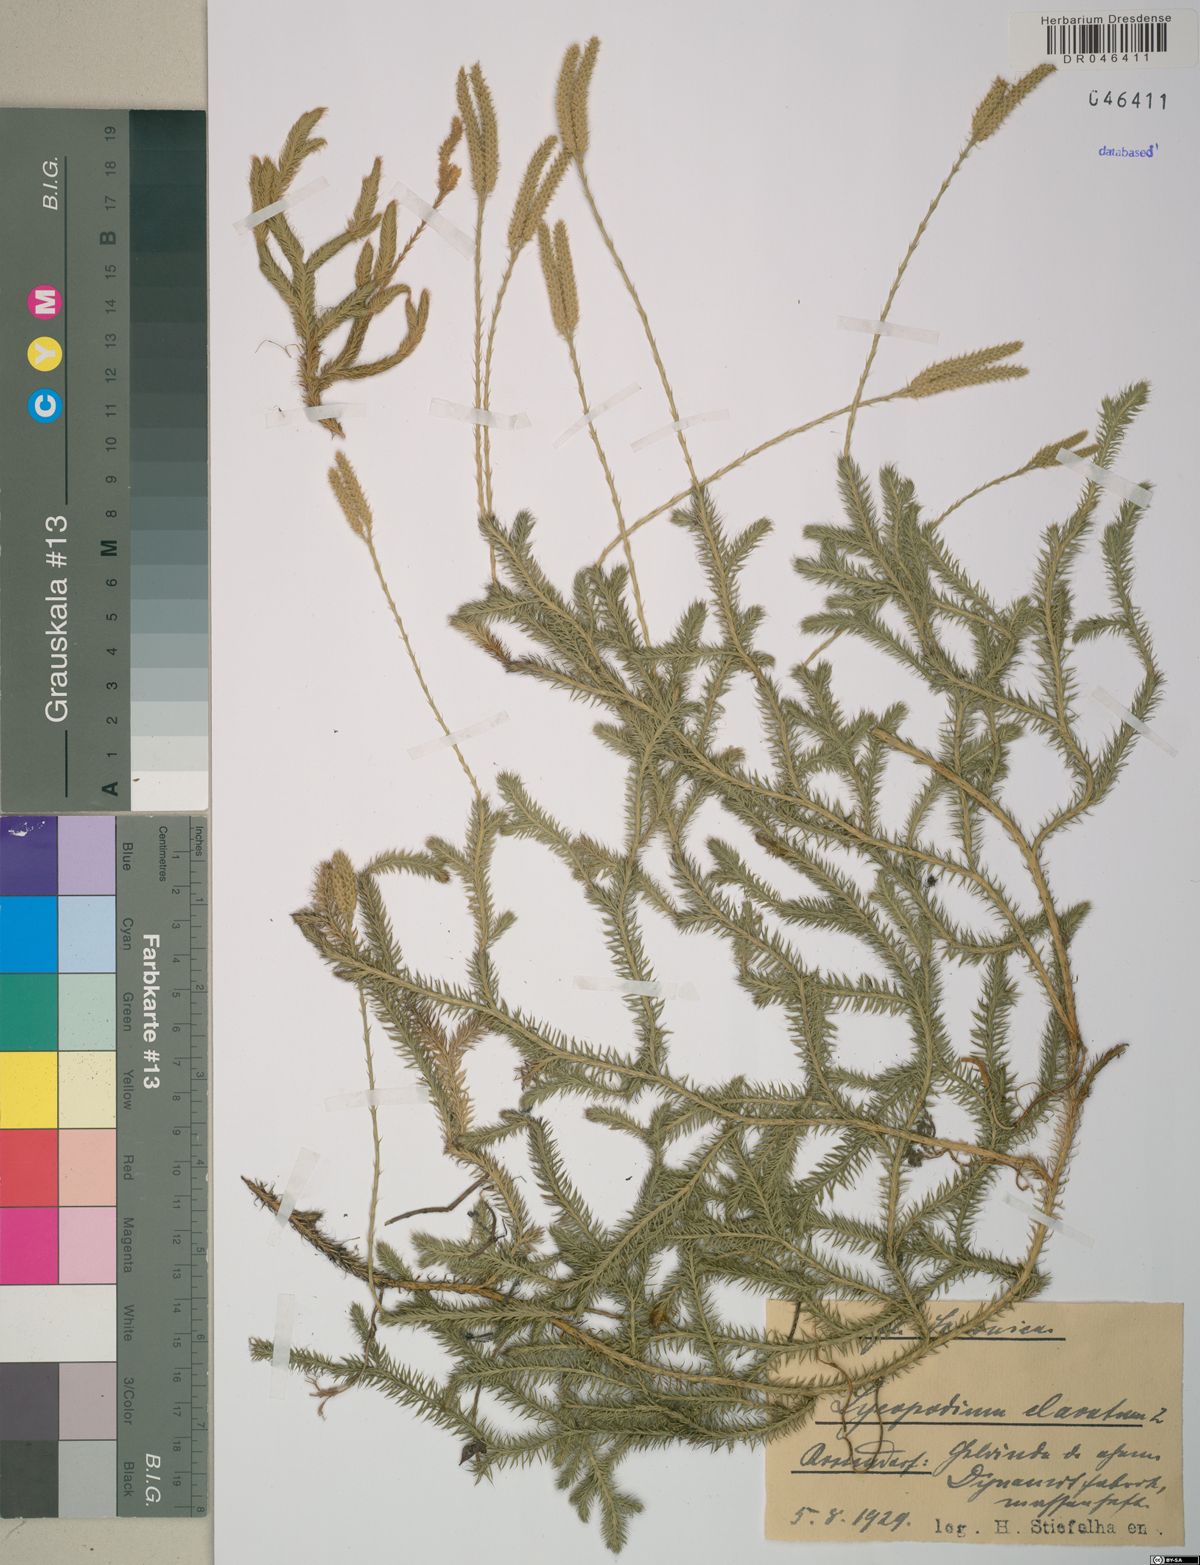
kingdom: Plantae
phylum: Tracheophyta
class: Lycopodiopsida
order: Lycopodiales
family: Lycopodiaceae
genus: Lycopodium
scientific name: Lycopodium clavatum
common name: Stag's-horn clubmoss
